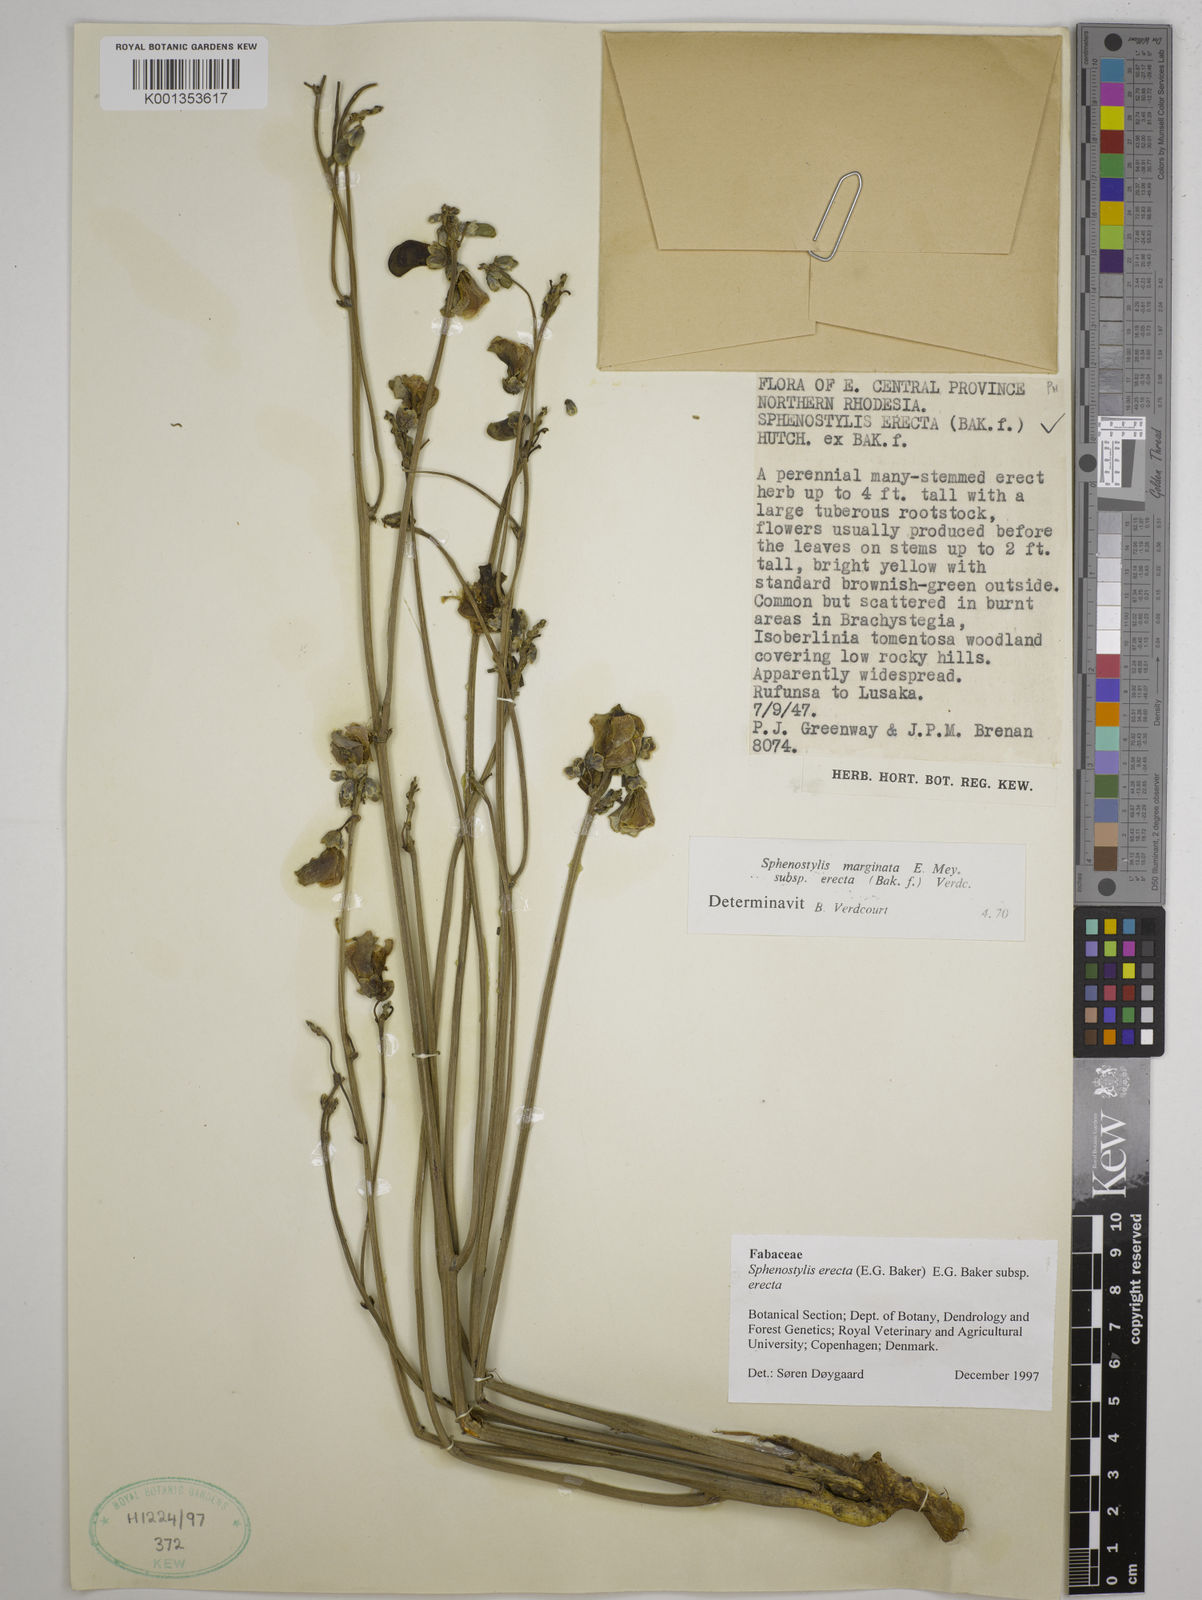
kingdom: Plantae
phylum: Tracheophyta
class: Magnoliopsida
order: Fabales
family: Fabaceae
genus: Sphenostylis
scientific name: Sphenostylis erecta
